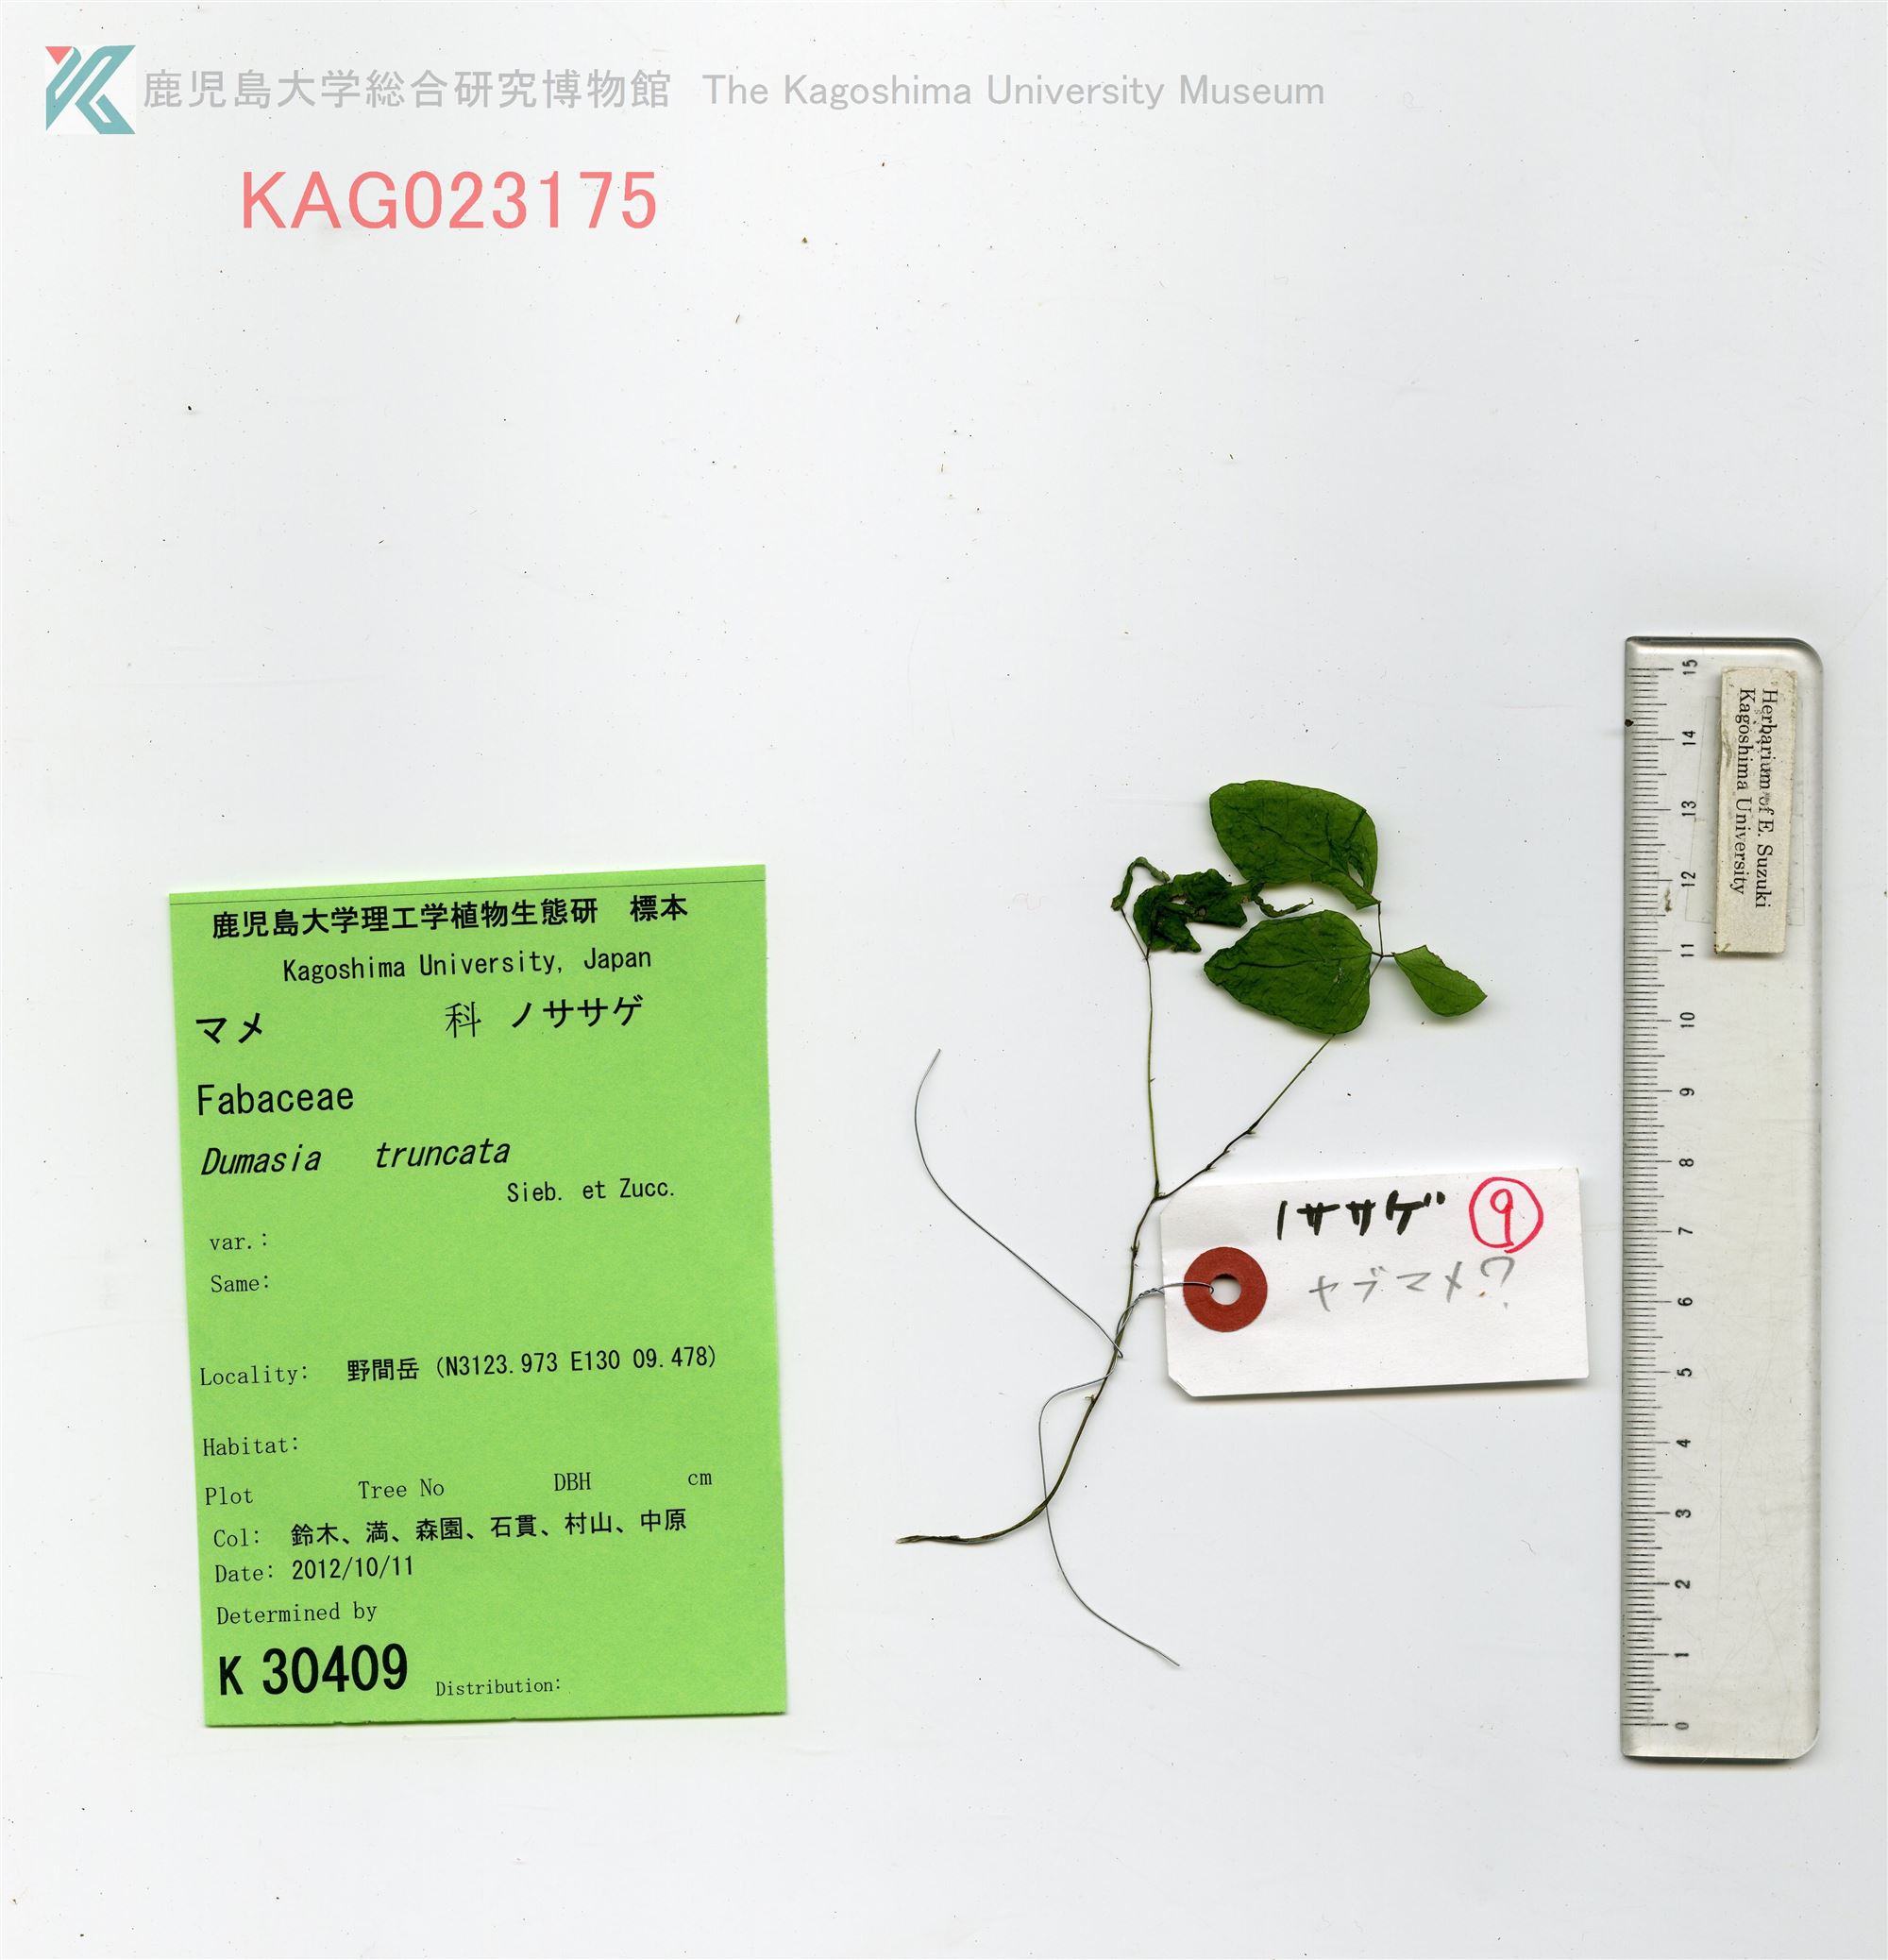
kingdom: Plantae
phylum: Tracheophyta
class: Magnoliopsida
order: Fabales
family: Fabaceae
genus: Dumasia
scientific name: Dumasia truncata
